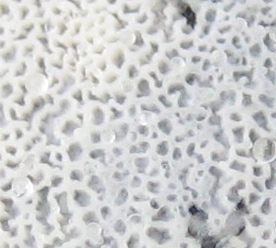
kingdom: Fungi
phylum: Basidiomycota
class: Agaricomycetes
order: Polyporales
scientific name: Polyporales
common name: poresvampordenen
